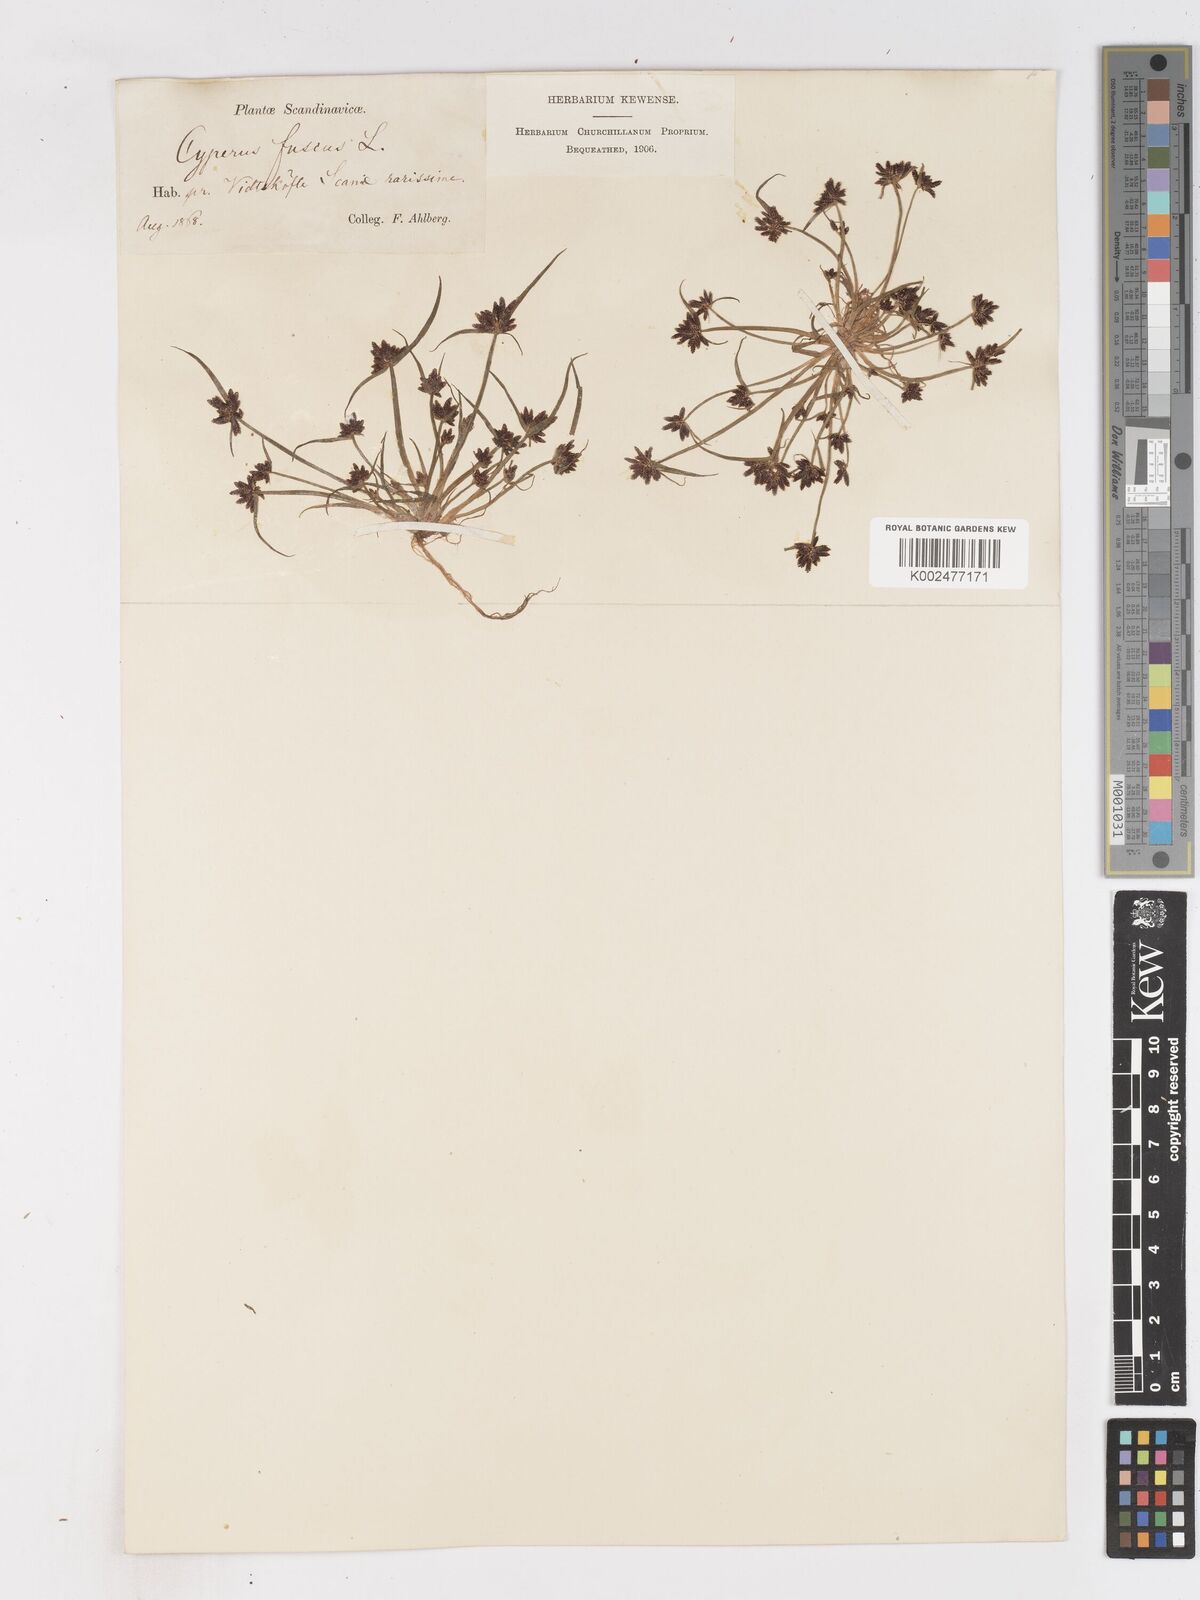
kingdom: Plantae
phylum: Tracheophyta
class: Liliopsida
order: Poales
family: Cyperaceae
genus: Cyperus
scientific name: Cyperus fuscus
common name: Brown galingale
